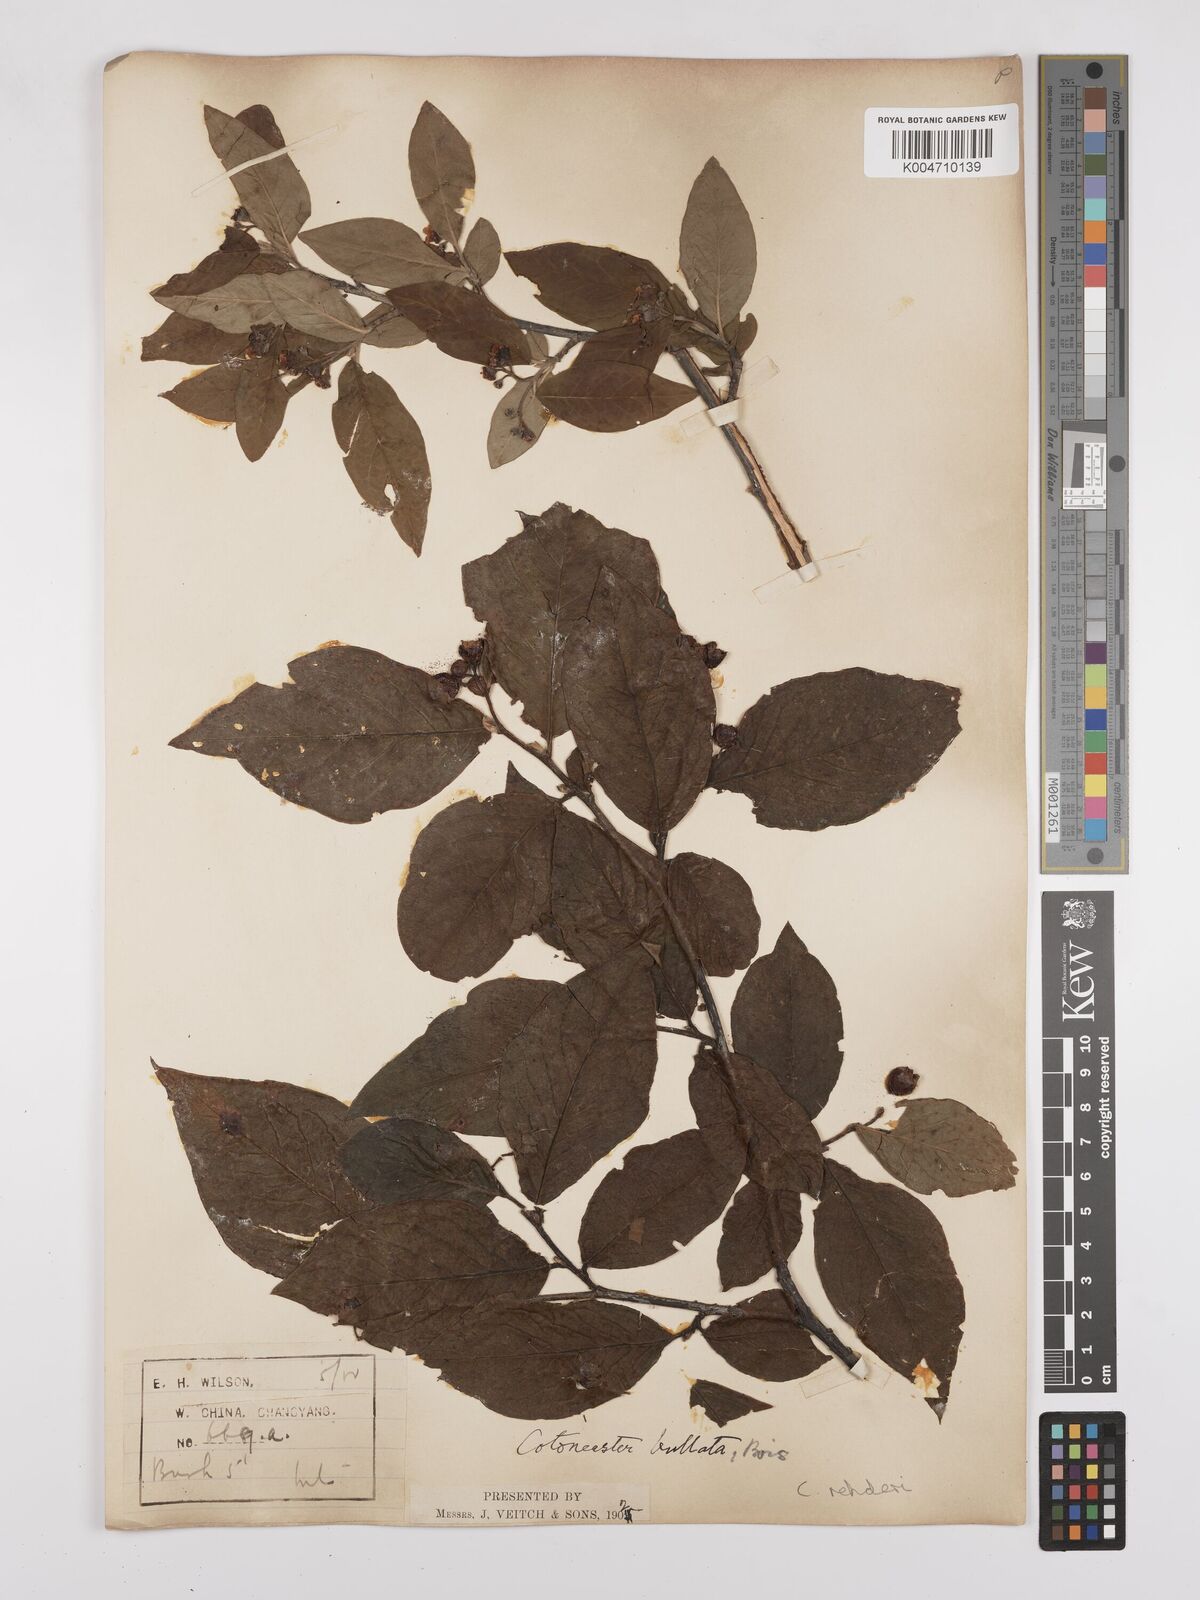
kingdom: Plantae
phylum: Tracheophyta
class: Magnoliopsida
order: Rosales
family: Rosaceae
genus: Cotoneaster
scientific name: Cotoneaster bullatus
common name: Hollyberry cotoneaster
